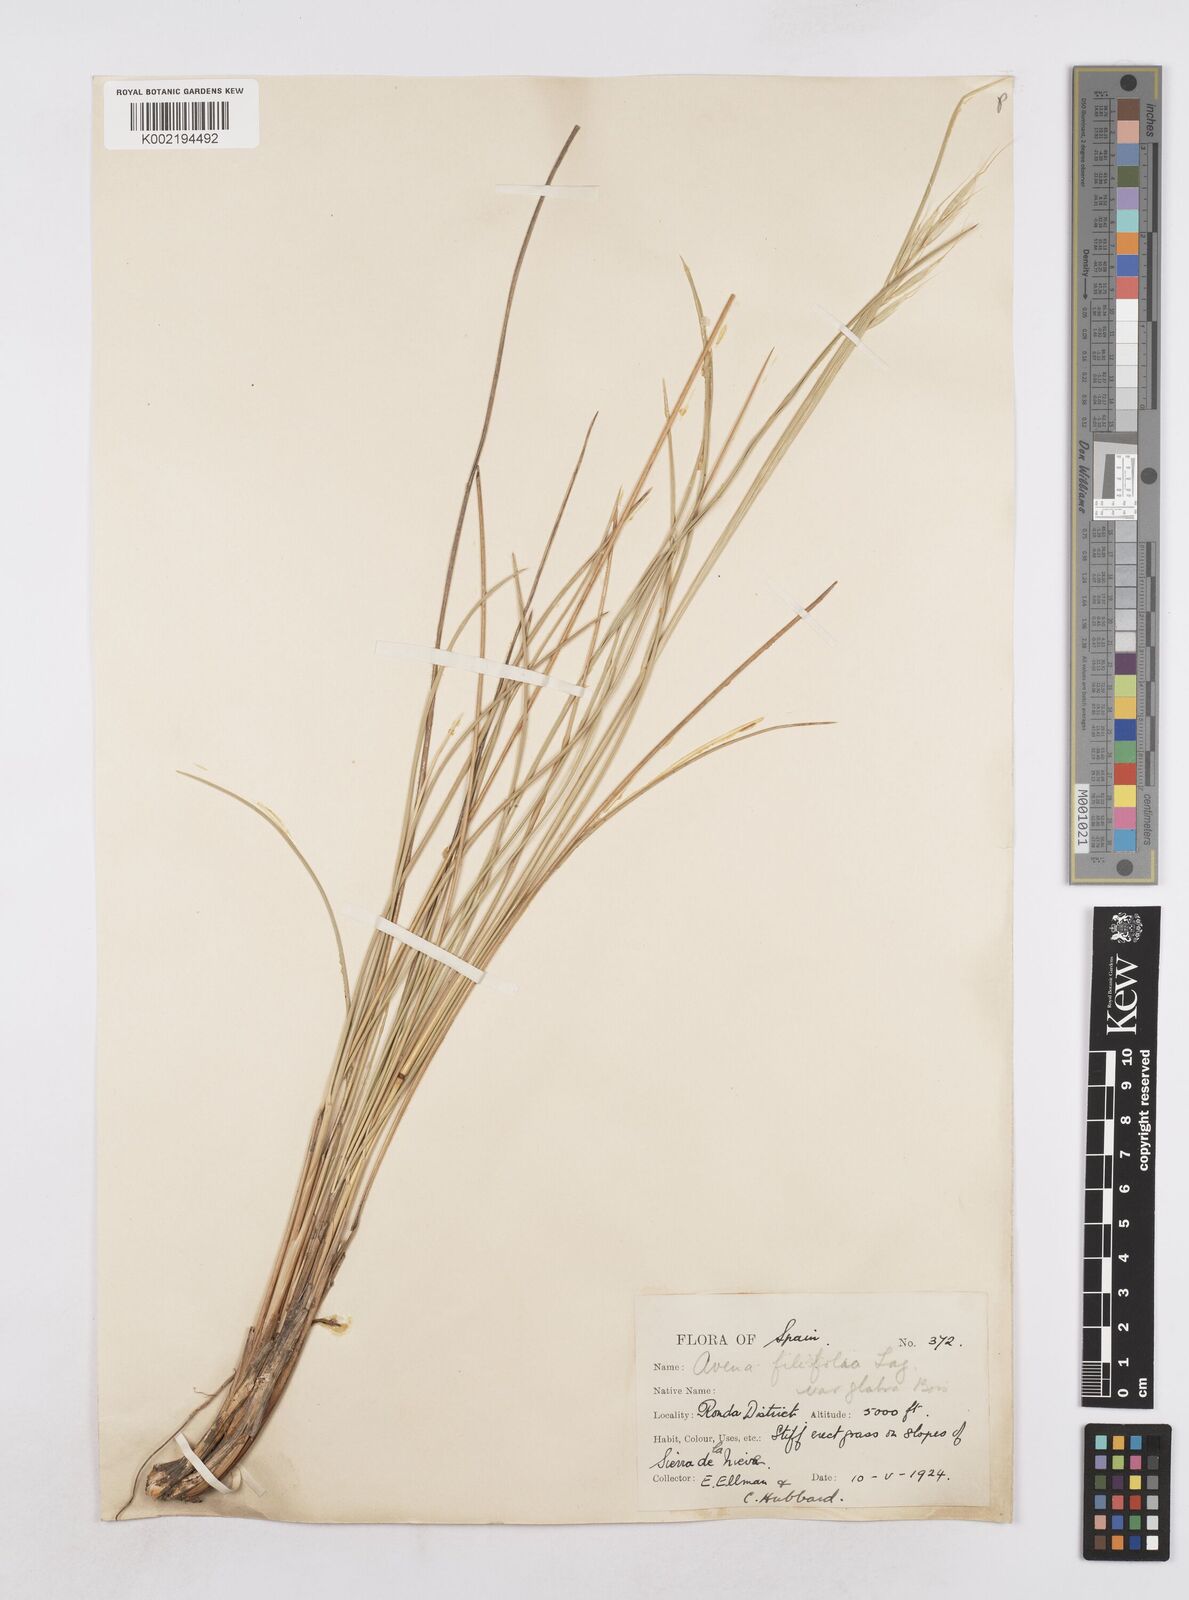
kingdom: Plantae
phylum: Tracheophyta
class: Liliopsida
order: Poales
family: Poaceae
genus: Helictotrichon
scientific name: Helictotrichon filifolium
